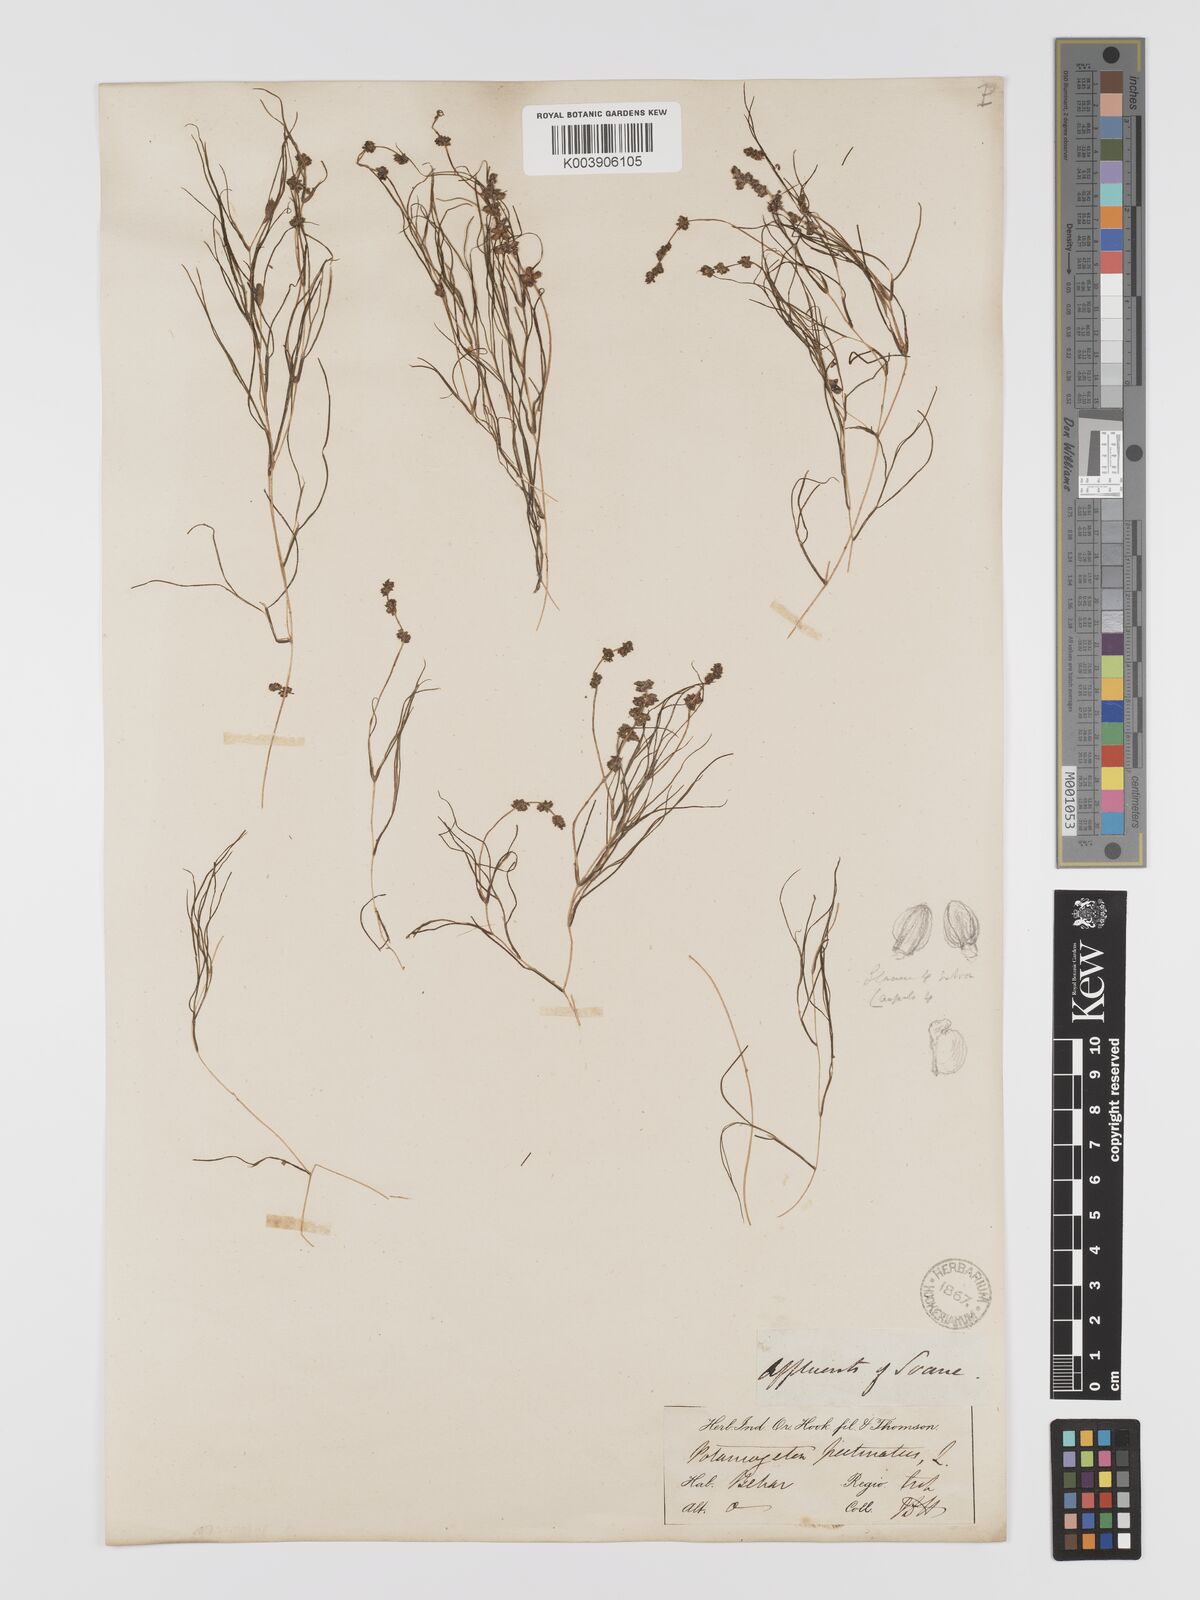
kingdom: Plantae
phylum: Tracheophyta
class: Liliopsida
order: Alismatales
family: Potamogetonaceae
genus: Stuckenia
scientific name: Stuckenia pectinata
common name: Sago pondweed
